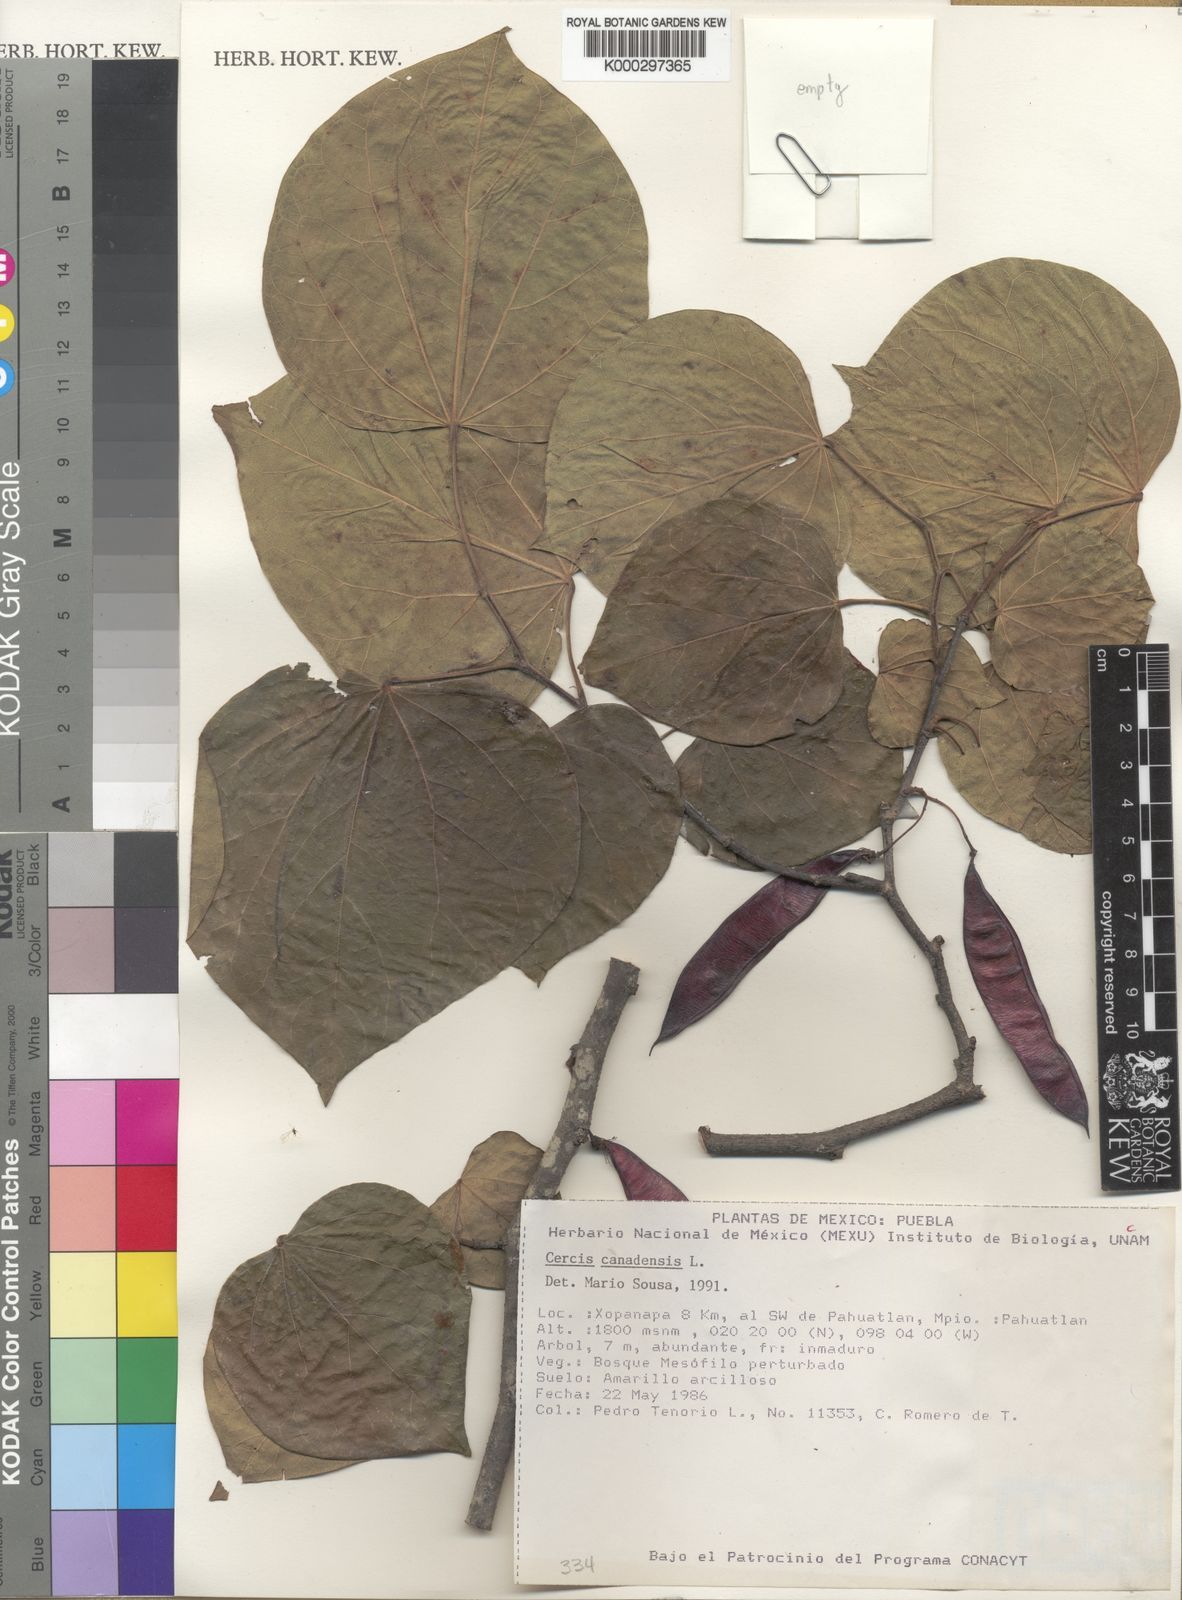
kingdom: Plantae
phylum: Tracheophyta
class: Magnoliopsida
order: Fabales
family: Fabaceae
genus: Cercis
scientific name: Cercis canadensis
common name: Eastern redbud
